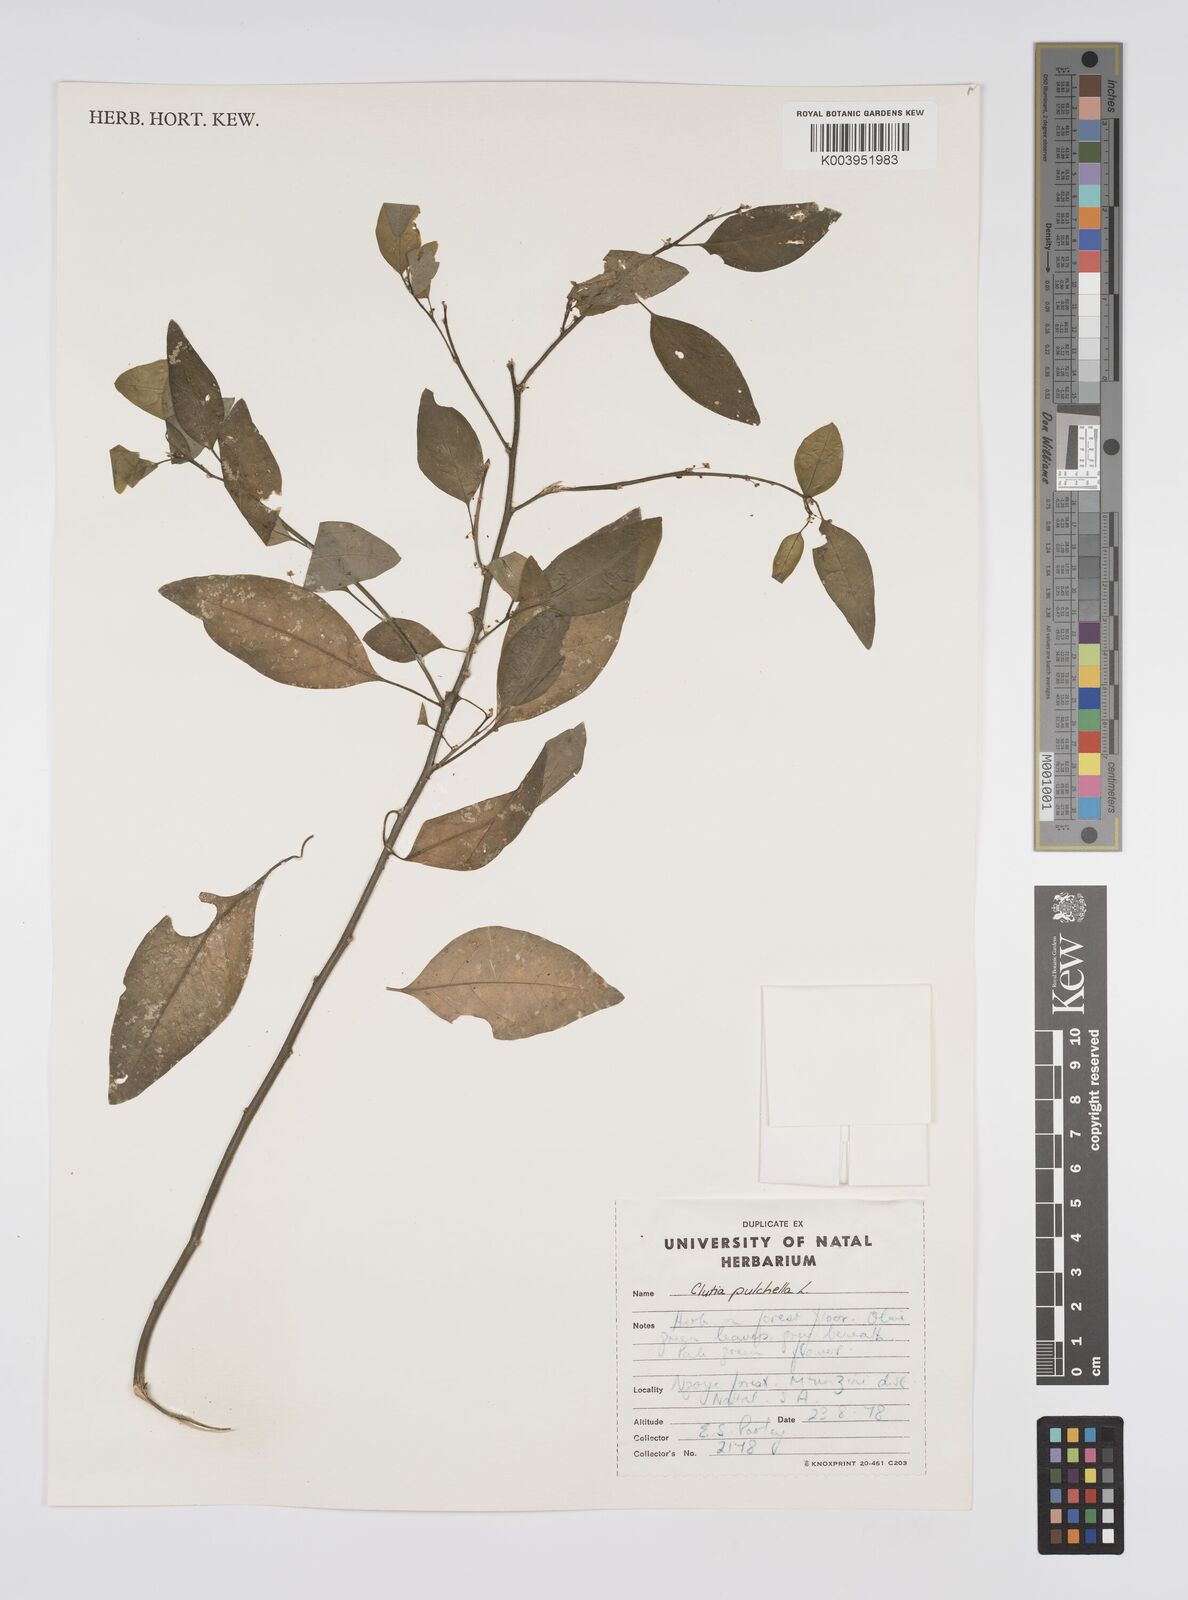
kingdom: Plantae
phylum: Tracheophyta
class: Magnoliopsida
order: Malpighiales
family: Peraceae
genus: Clutia
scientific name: Clutia pulchella
